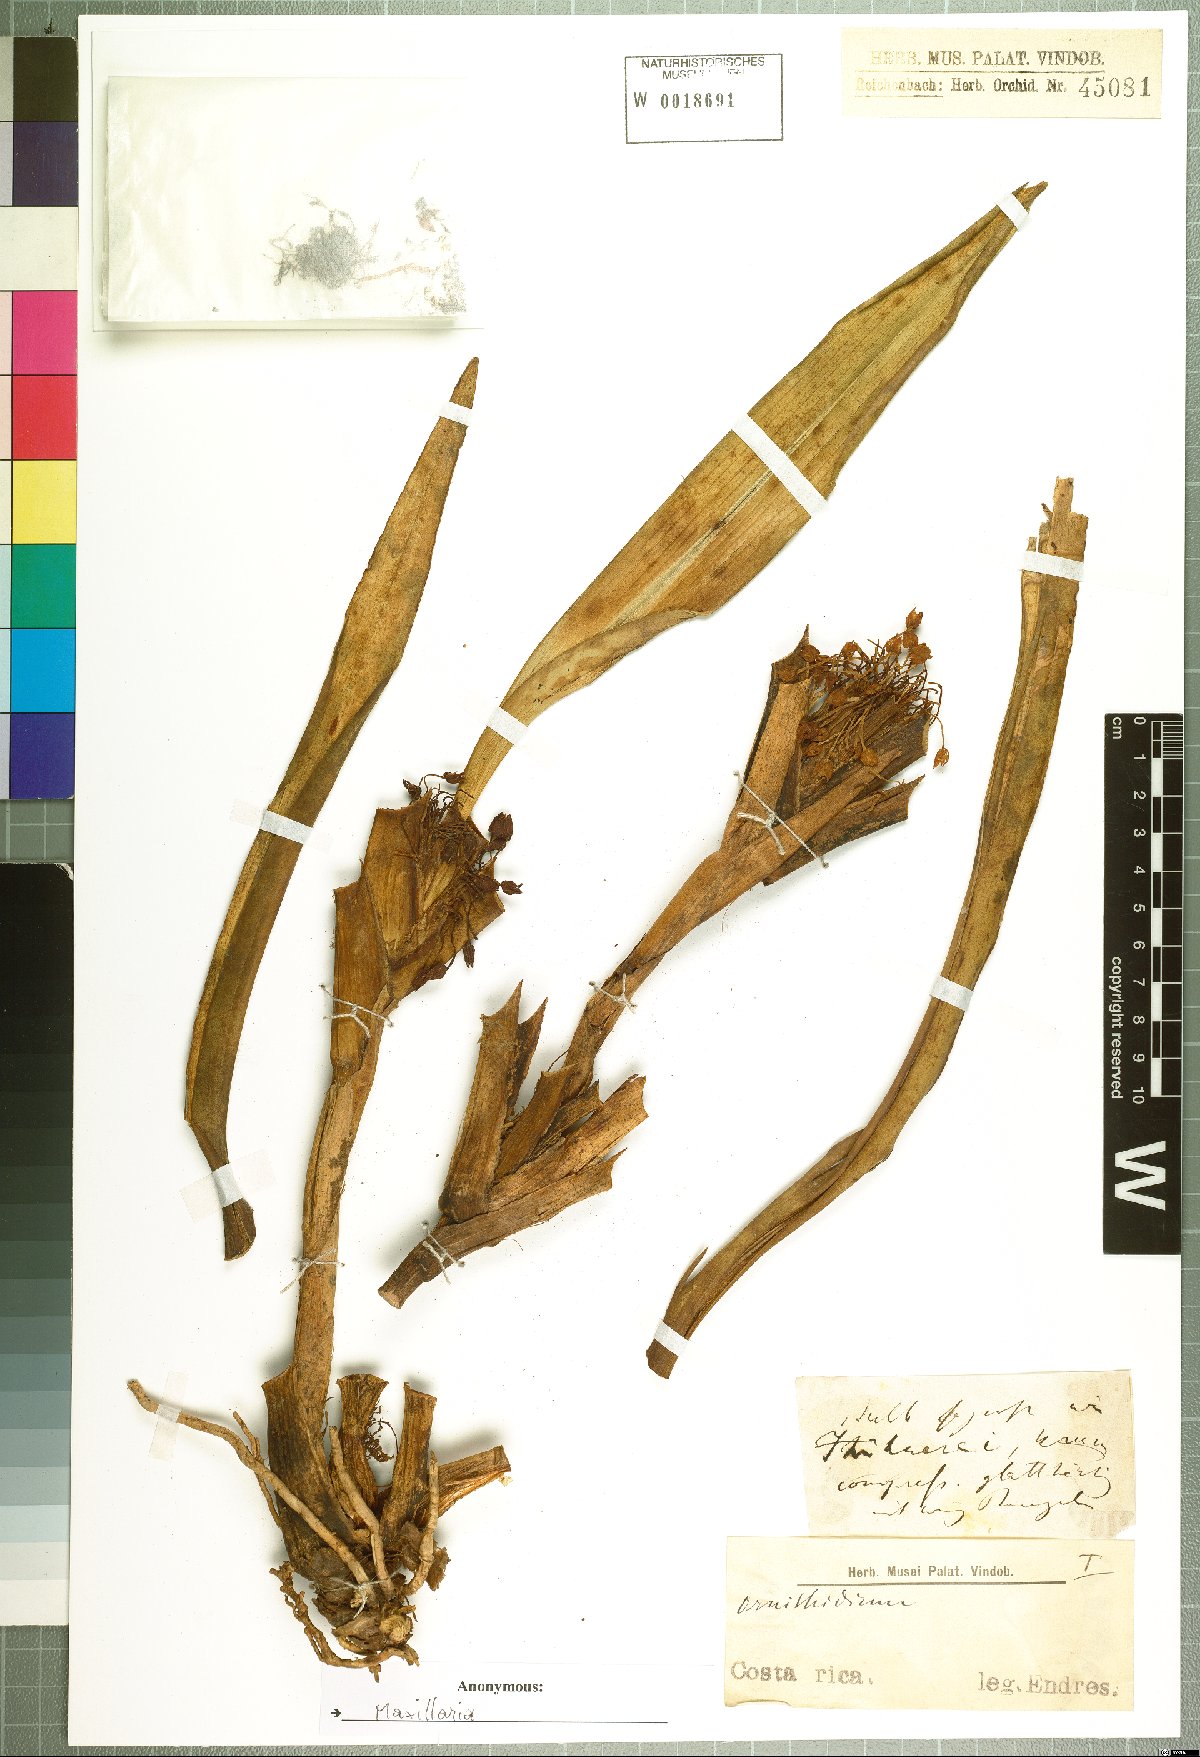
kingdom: Plantae
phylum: Tracheophyta
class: Liliopsida
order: Asparagales
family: Orchidaceae
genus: Maxillaria
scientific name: Maxillaria
